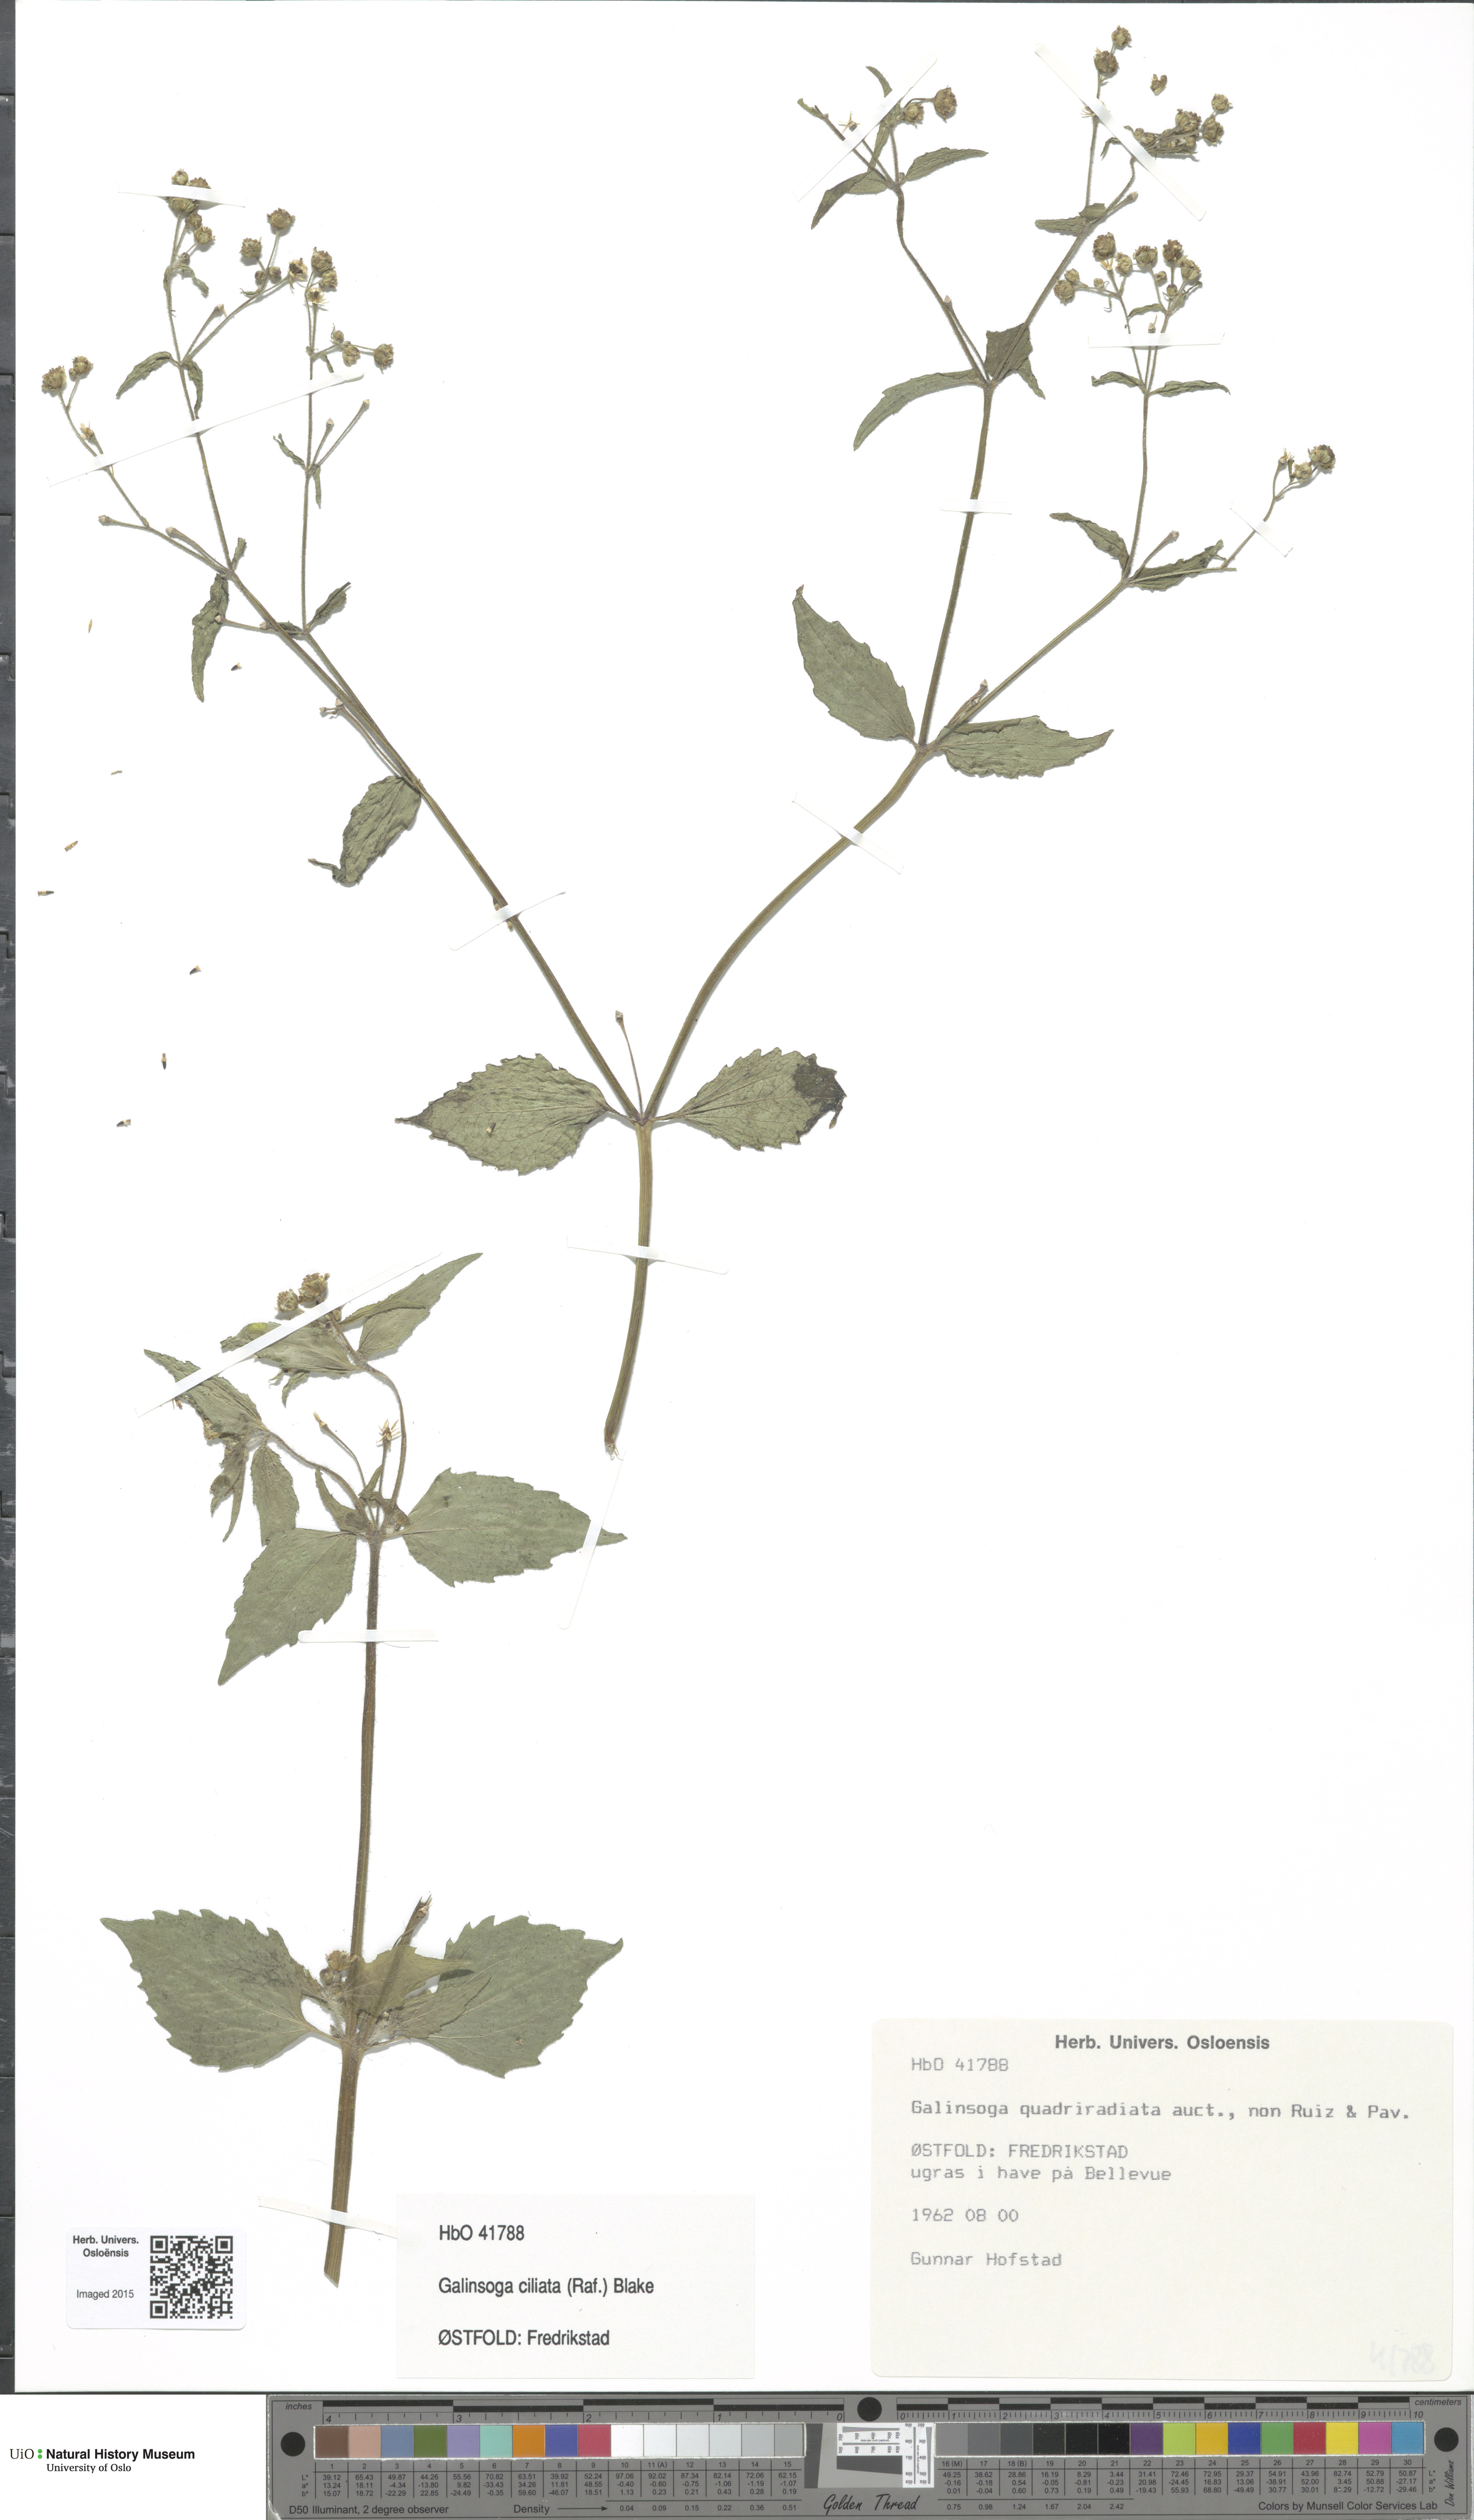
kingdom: Plantae
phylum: Tracheophyta
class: Magnoliopsida
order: Asterales
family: Asteraceae
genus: Galinsoga
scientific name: Galinsoga quadriradiata
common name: Shaggy soldier
